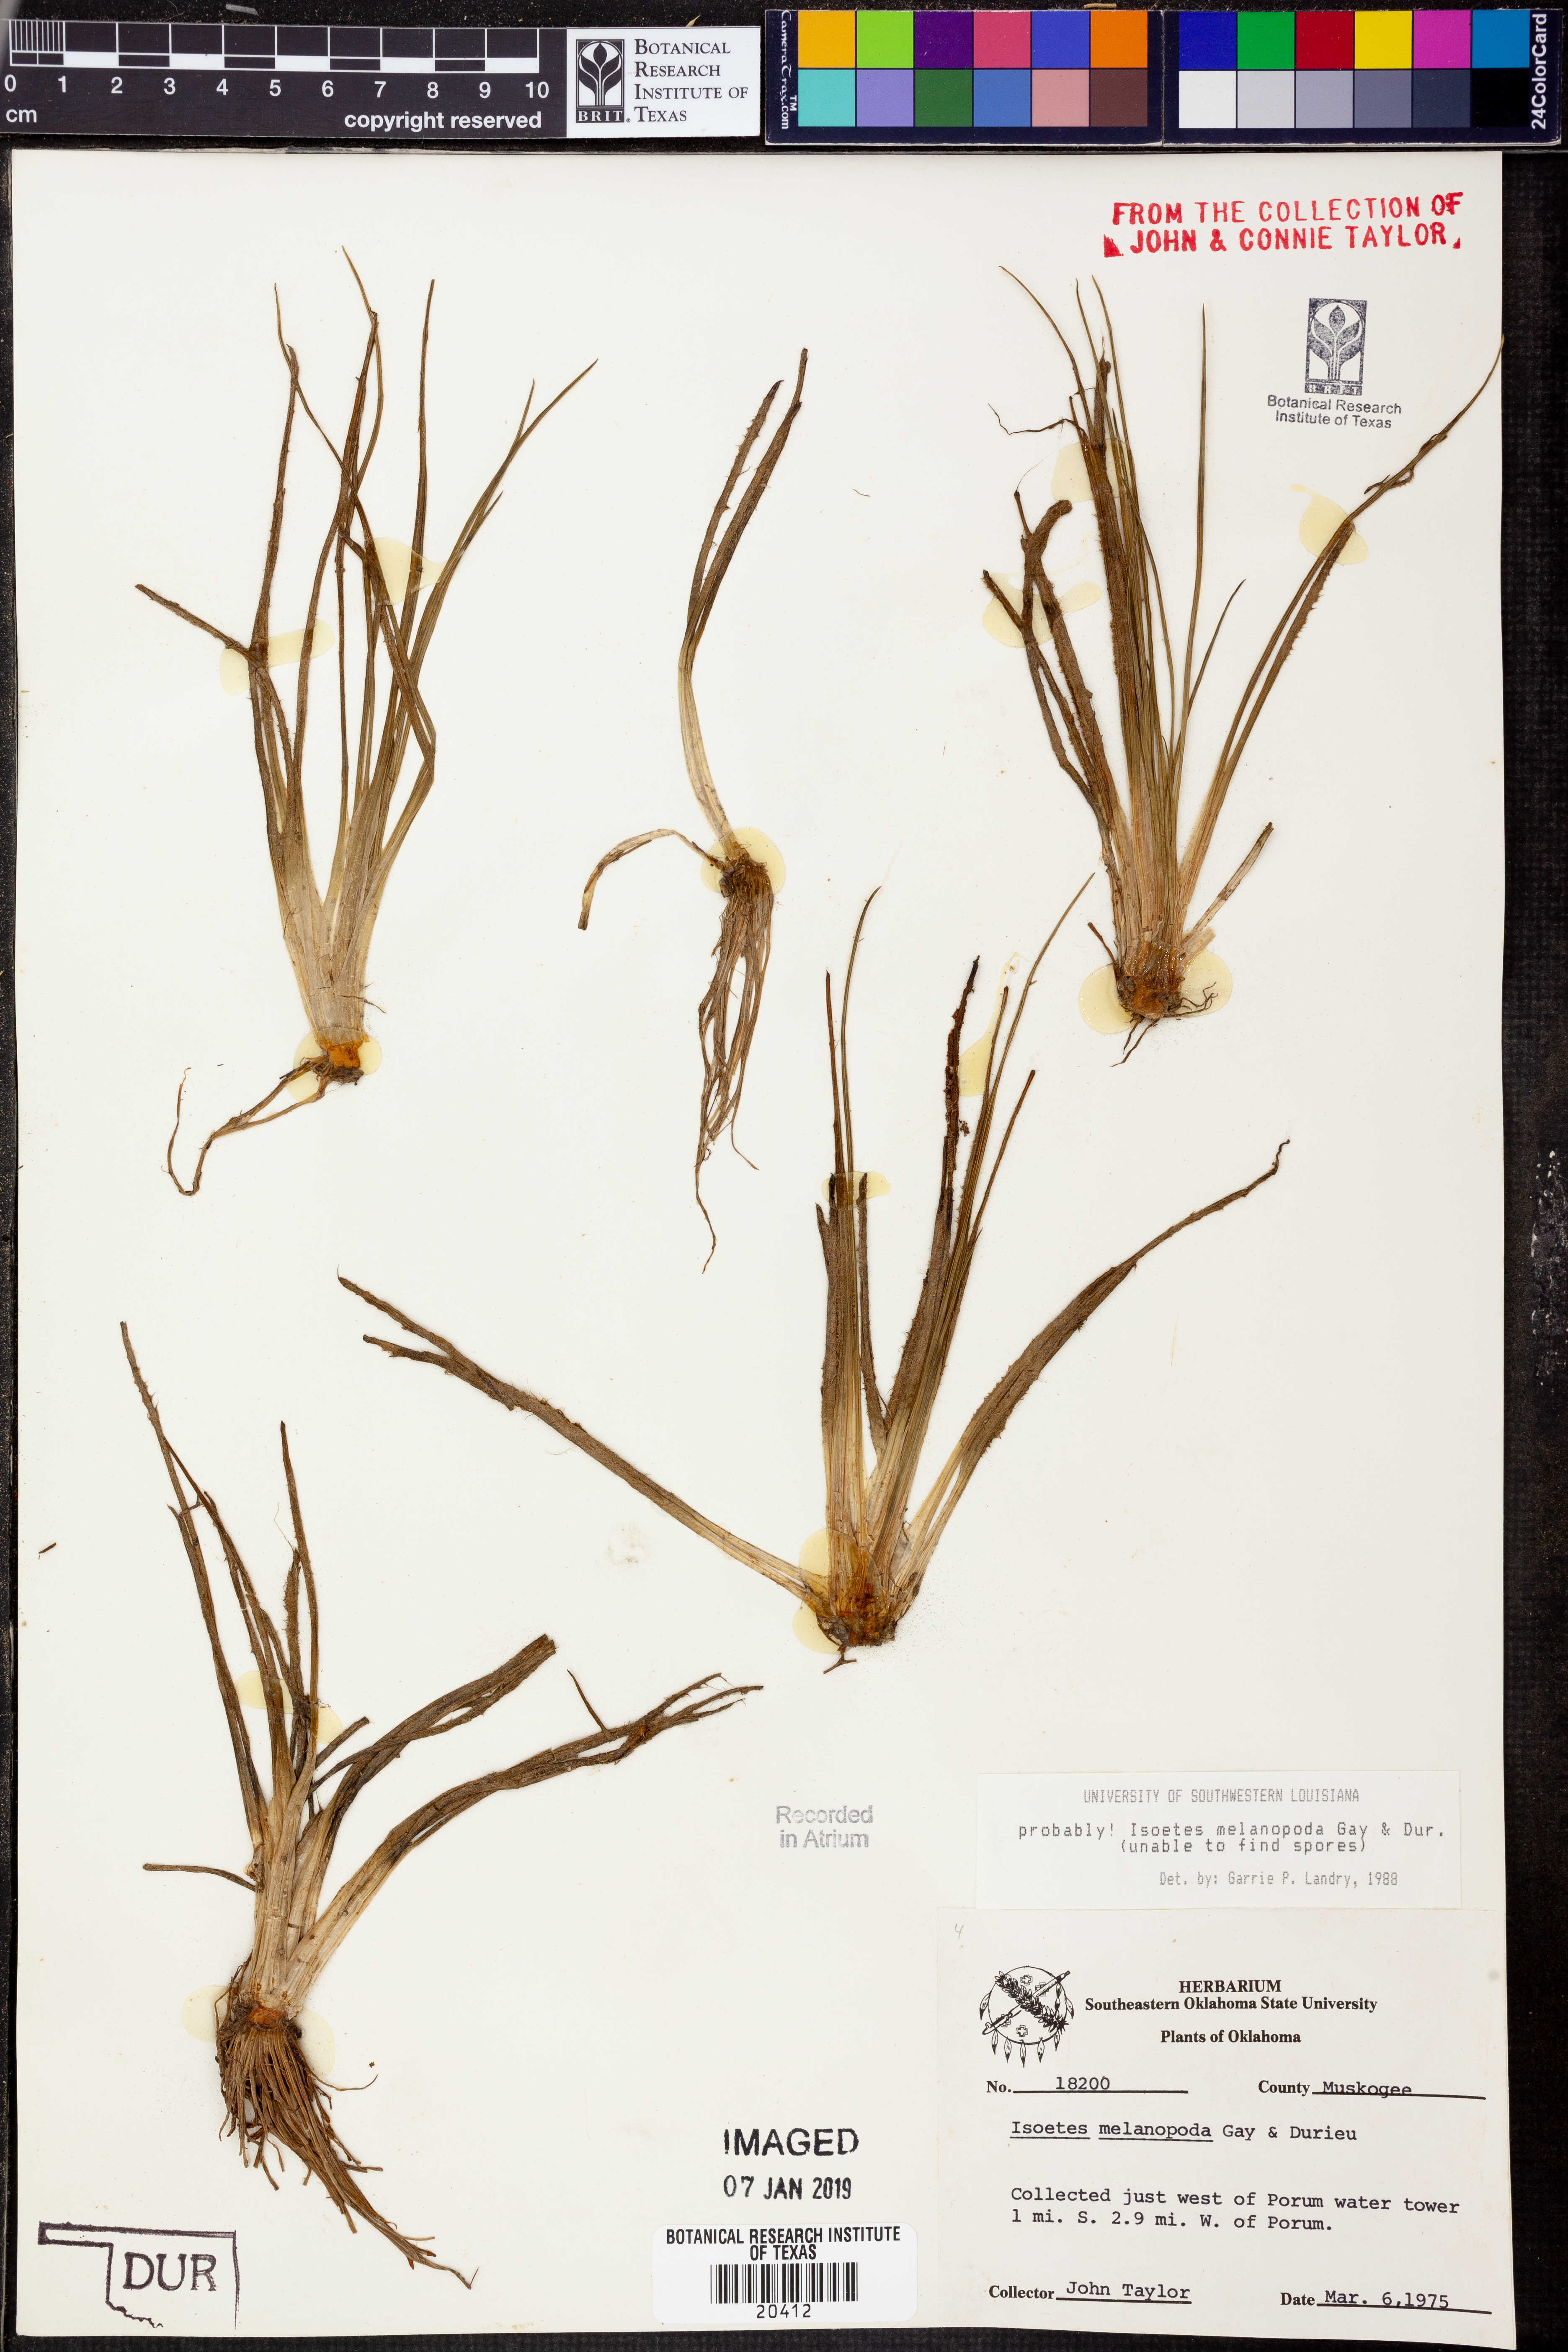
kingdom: Plantae
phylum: Tracheophyta
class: Lycopodiopsida
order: Isoetales
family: Isoetaceae
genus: Isoetes
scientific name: Isoetes melanopoda
